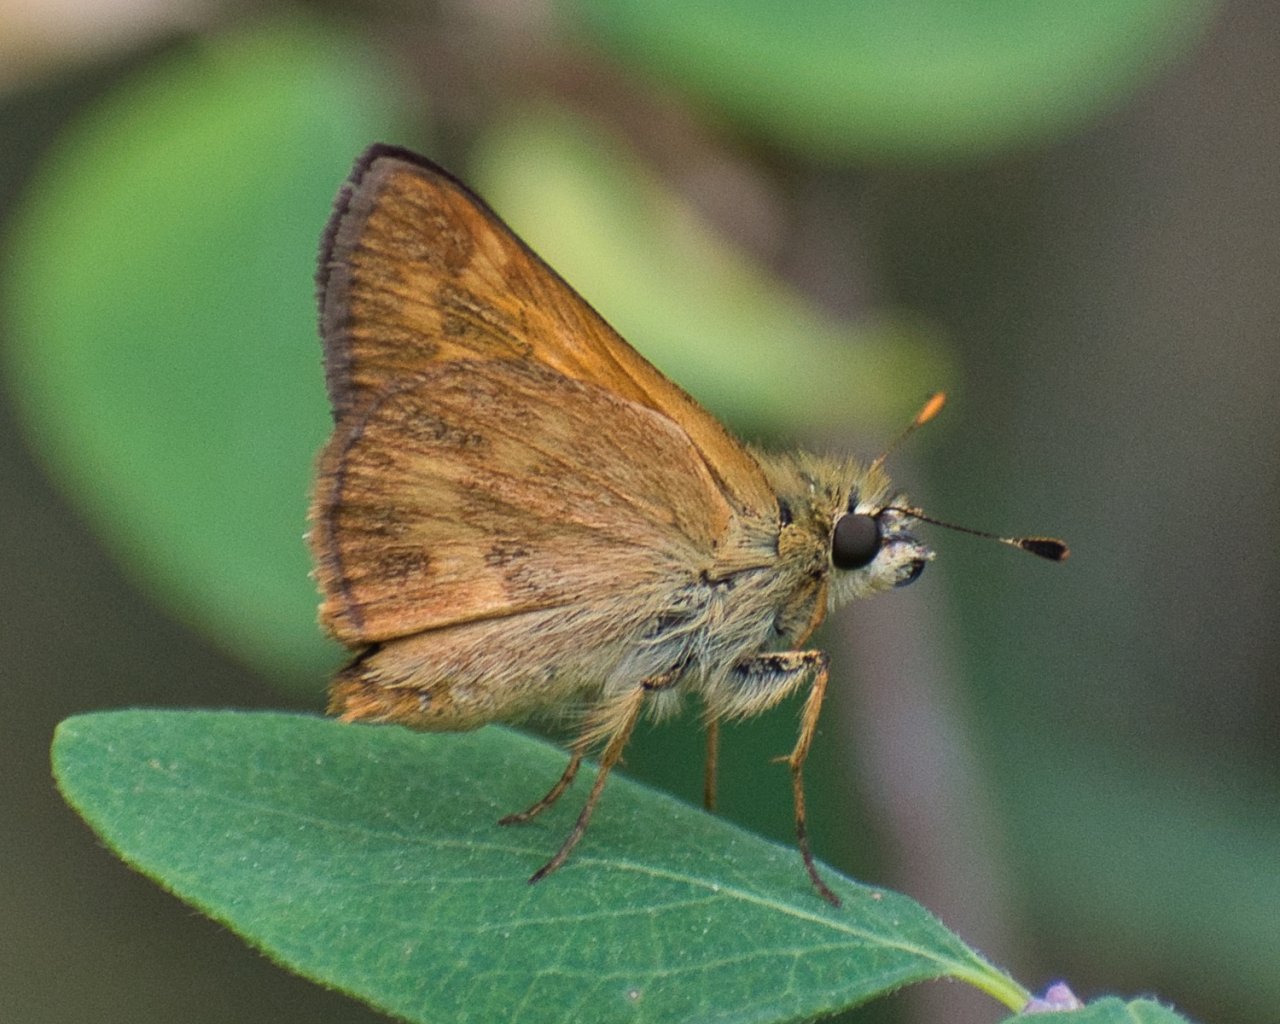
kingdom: Animalia
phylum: Arthropoda
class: Insecta
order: Lepidoptera
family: Hesperiidae
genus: Ochlodes
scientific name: Ochlodes sylvanoides
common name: Woodland Skipper
